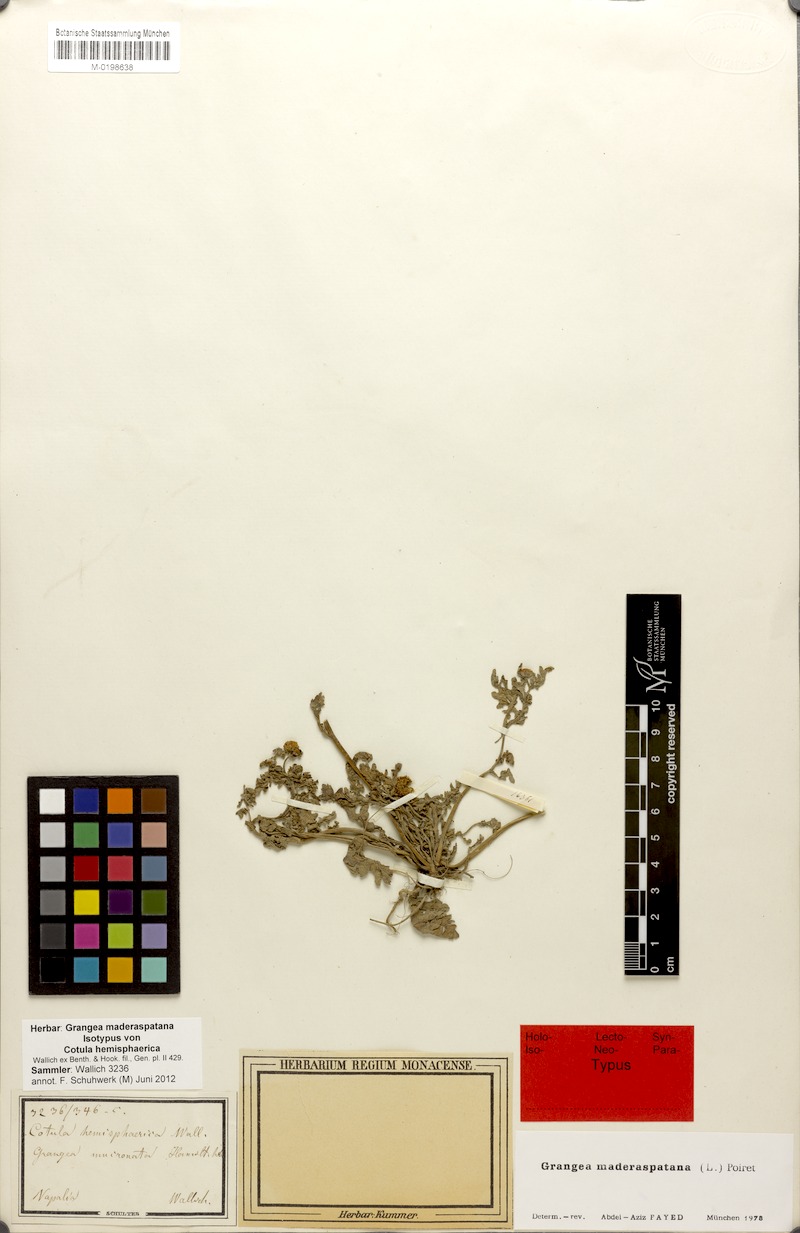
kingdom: Plantae
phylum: Tracheophyta
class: Magnoliopsida
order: Asterales
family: Asteraceae
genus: Grangea
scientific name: Grangea maderaspatana
